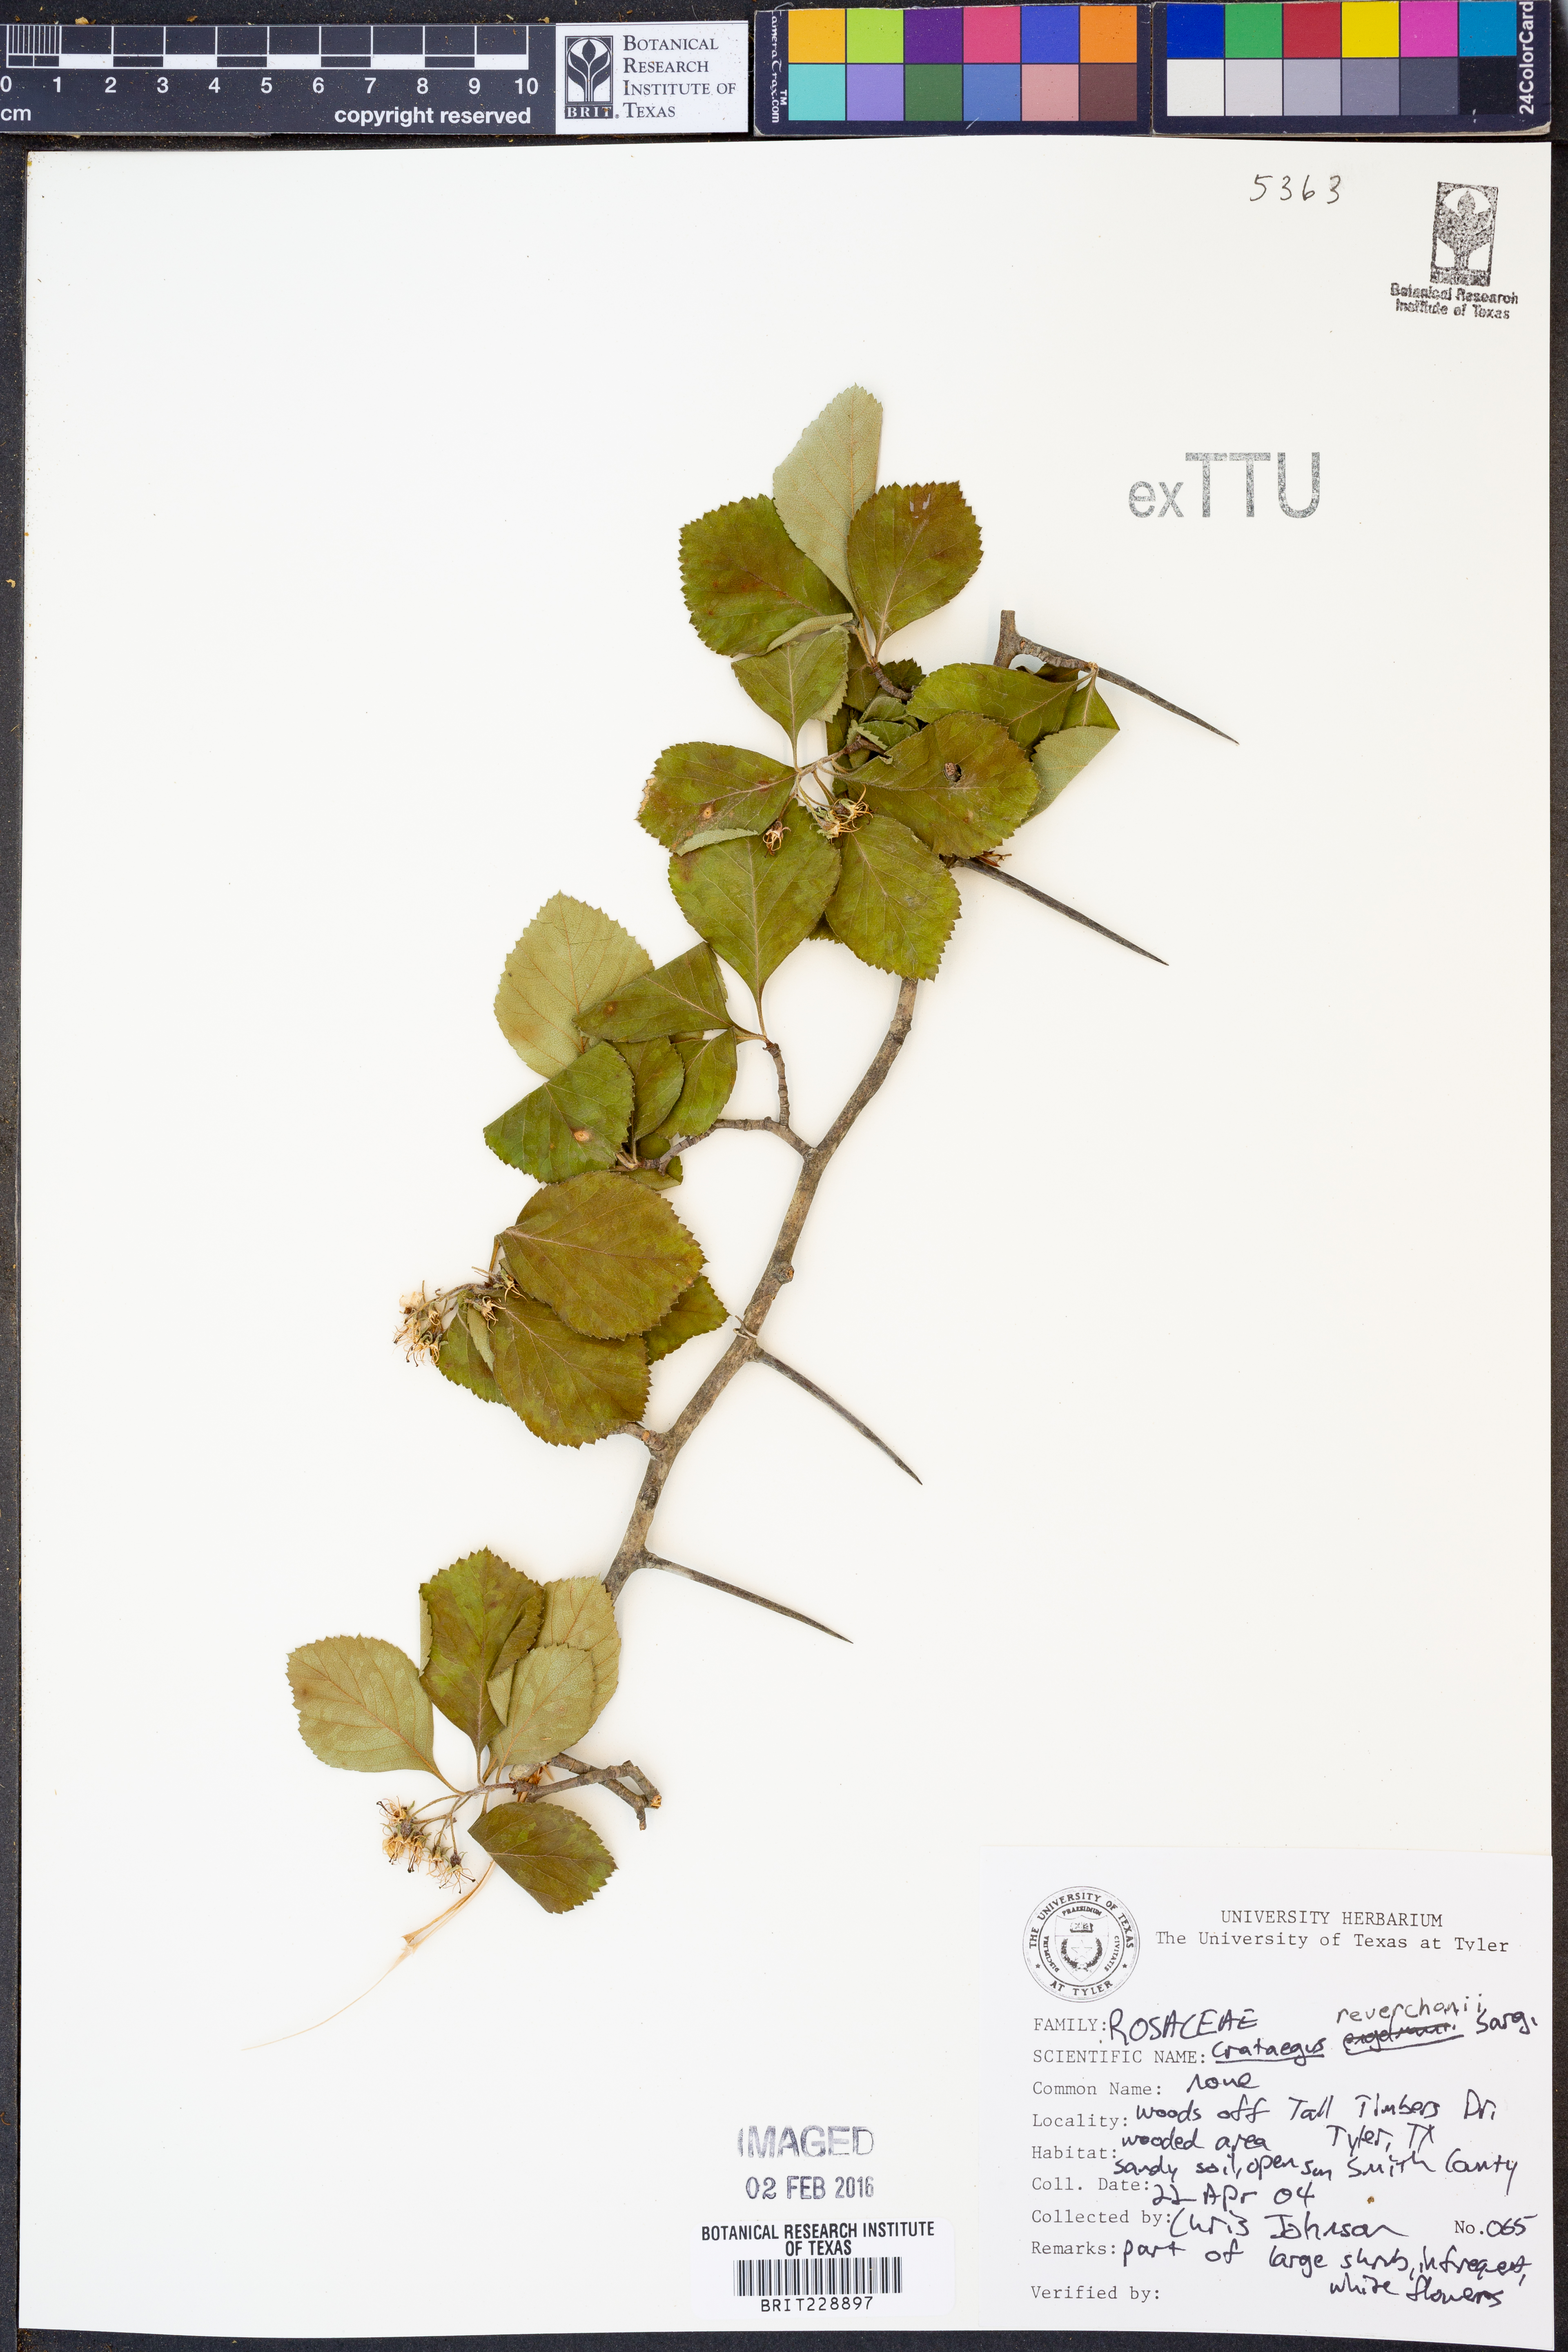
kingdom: Plantae
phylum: Tracheophyta
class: Magnoliopsida
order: Rosales
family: Rosaceae
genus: Crataegus
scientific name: Crataegus reverchonii
